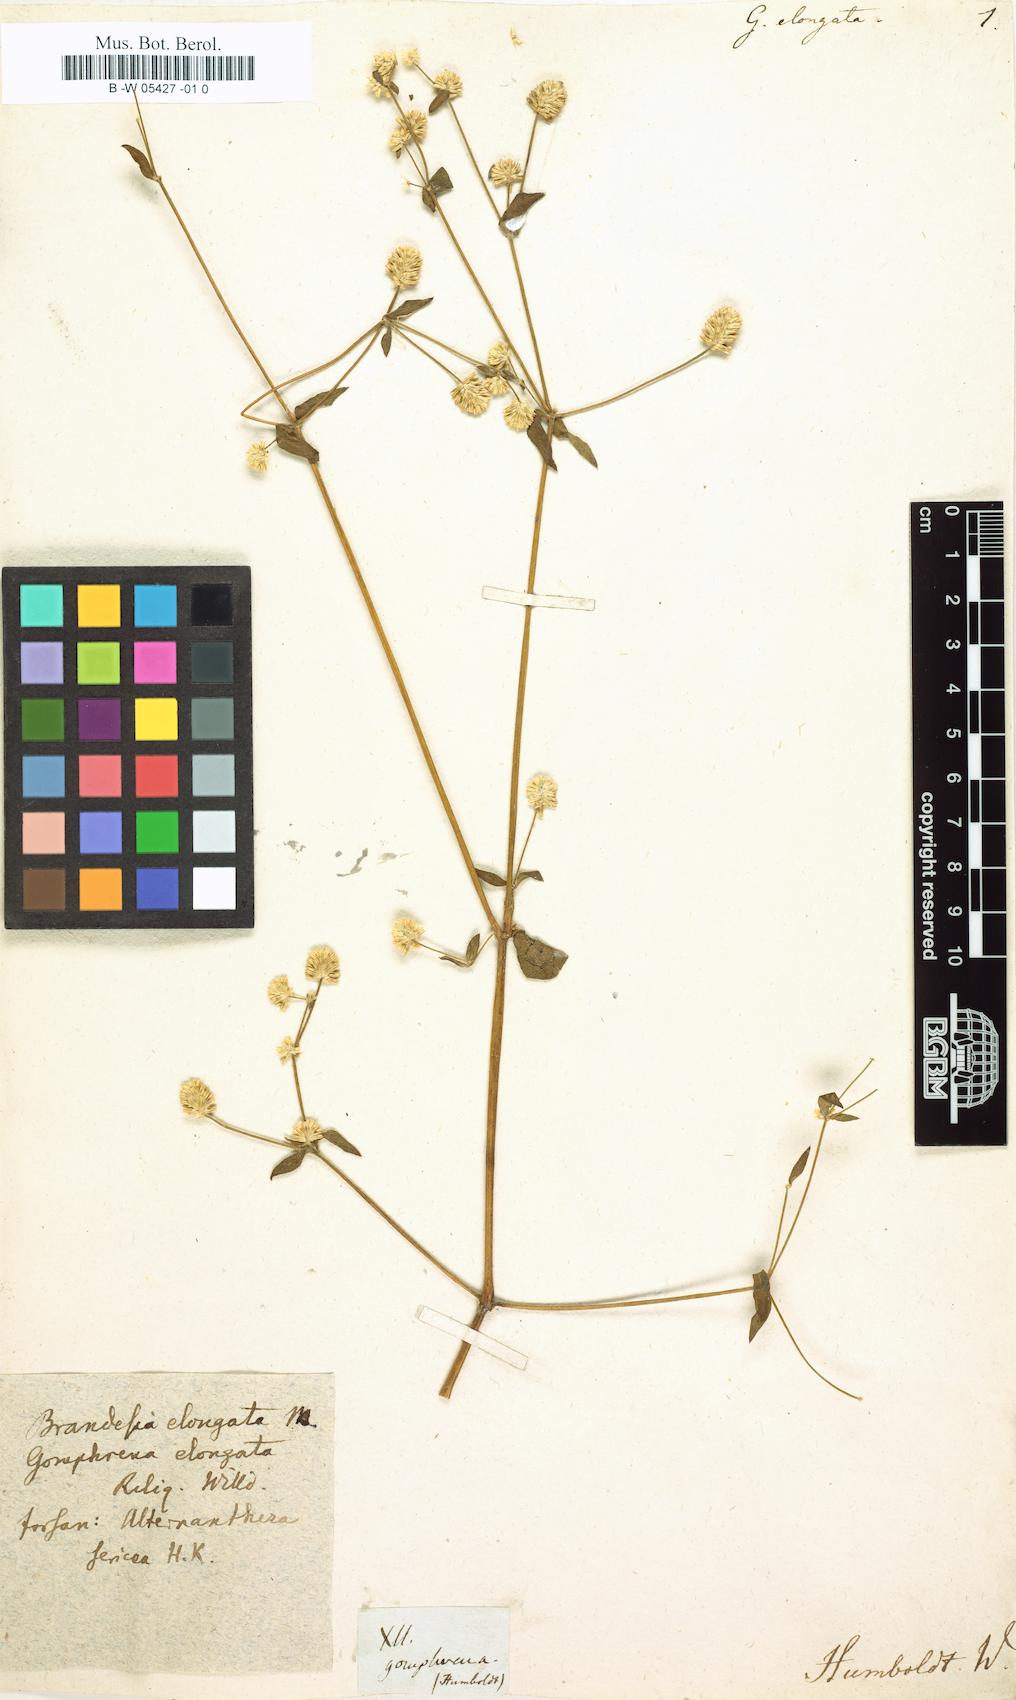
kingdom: Plantae
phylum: Tracheophyta
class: Magnoliopsida
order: Caryophyllales
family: Amaranthaceae
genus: Gomphrena
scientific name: Gomphrena elongata
